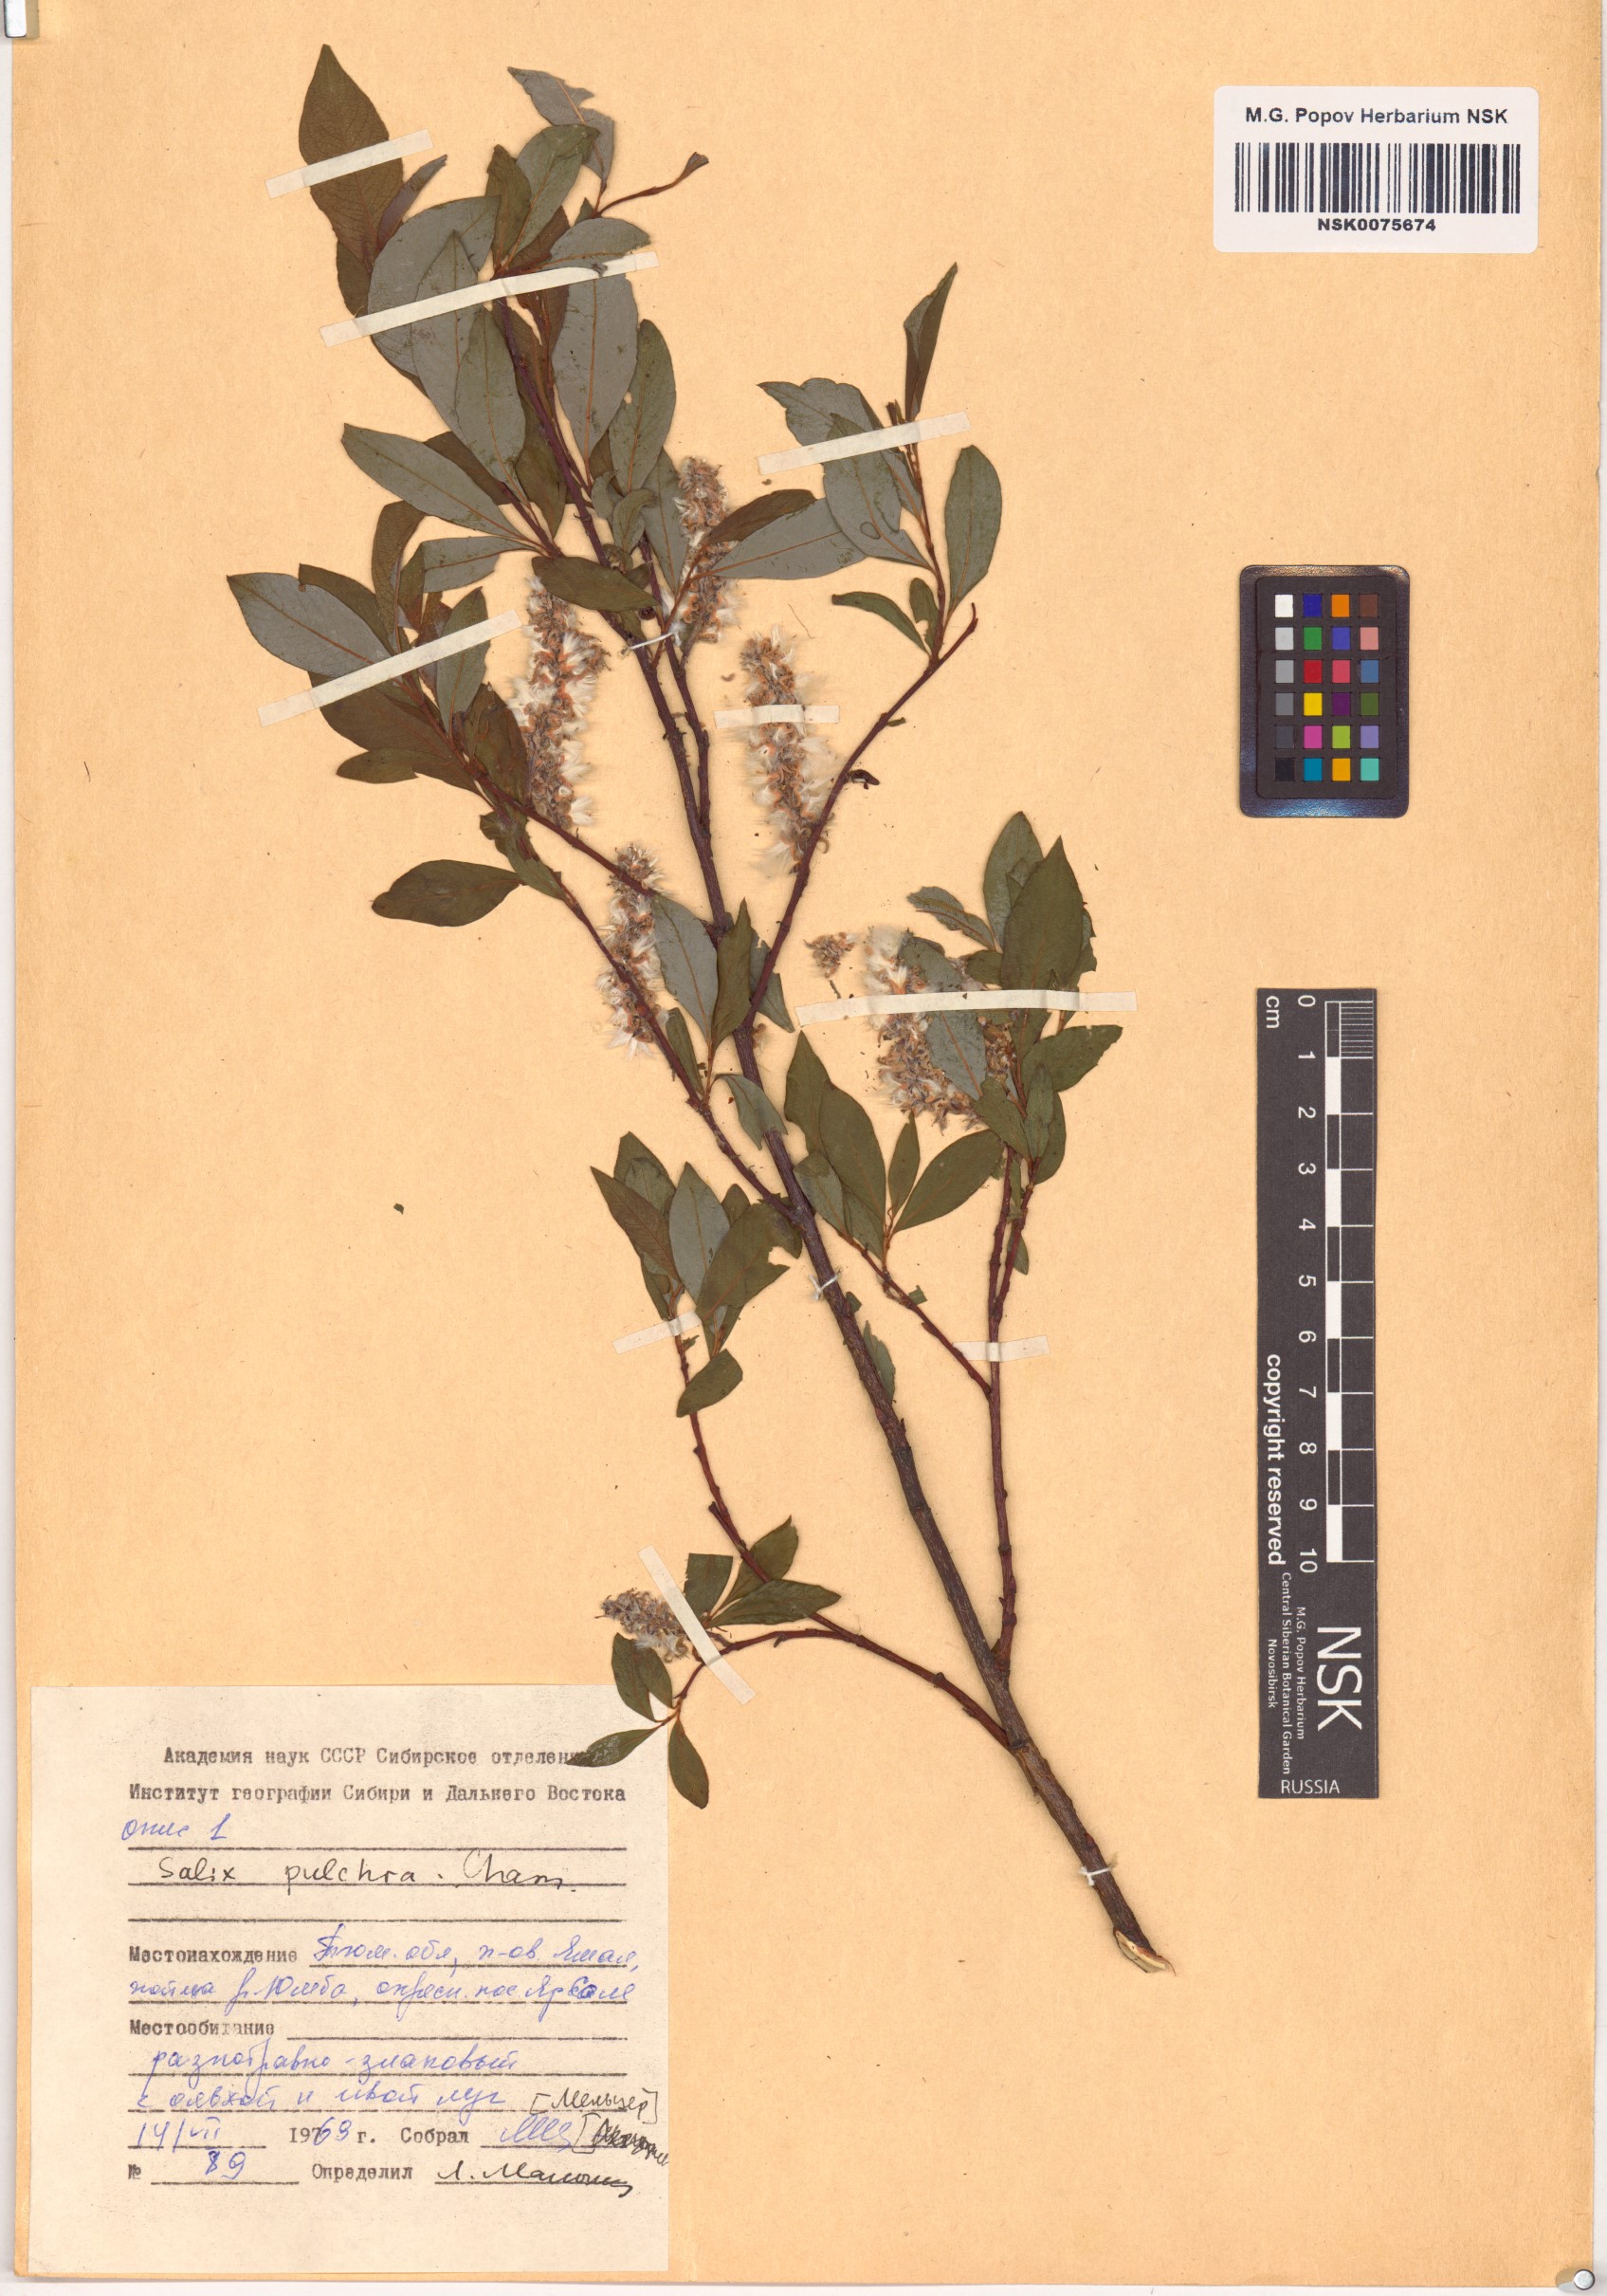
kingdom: Plantae
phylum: Tracheophyta
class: Magnoliopsida
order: Malpighiales
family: Salicaceae
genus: Salix
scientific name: Salix pulchra
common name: Diamond-leaved willow
